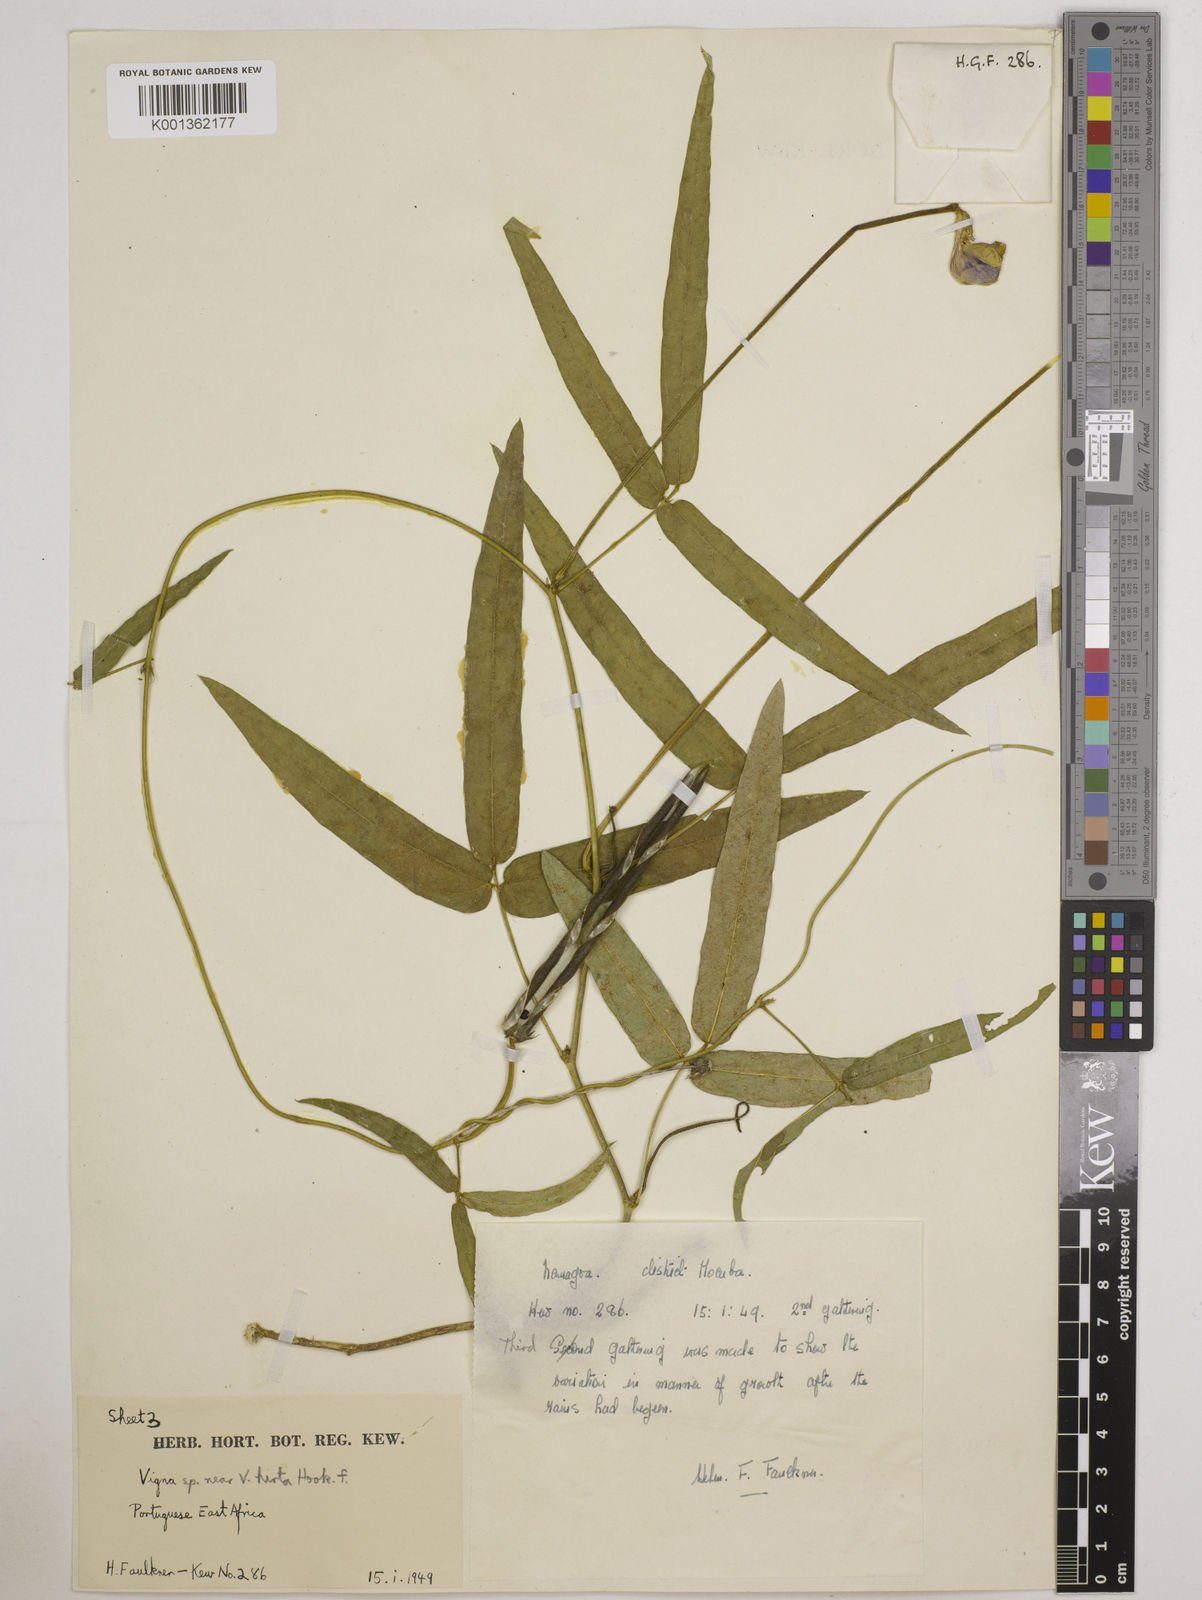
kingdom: Plantae
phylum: Tracheophyta
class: Magnoliopsida
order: Fabales
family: Fabaceae
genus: Vigna
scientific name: Vigna vexillata
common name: Zombi pea
